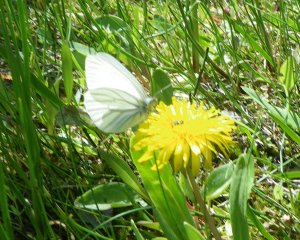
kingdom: Animalia
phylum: Arthropoda
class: Insecta
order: Lepidoptera
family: Pieridae
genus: Pieris
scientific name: Pieris oleracea
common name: Mustard White
